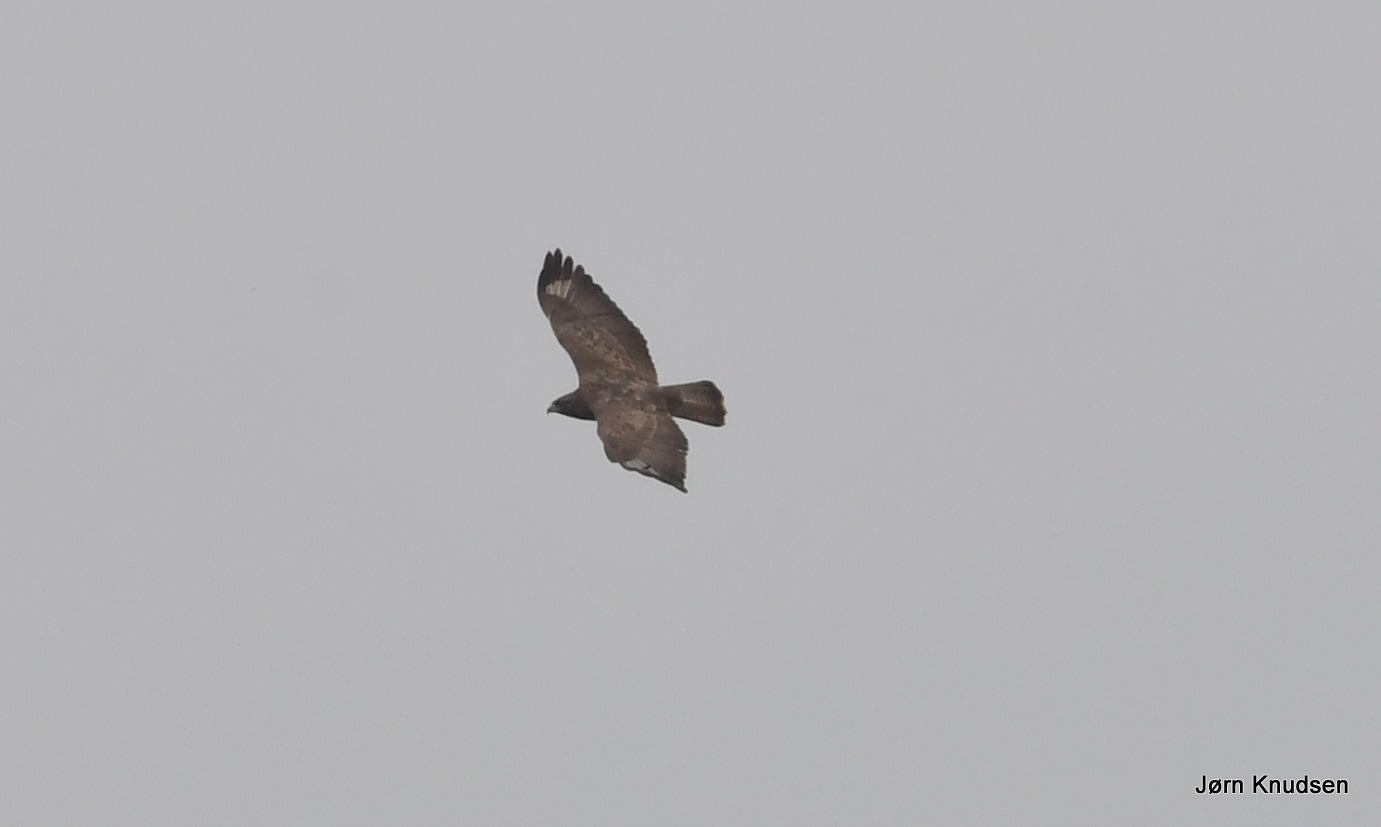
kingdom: Animalia
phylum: Chordata
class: Aves
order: Accipitriformes
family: Accipitridae
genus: Buteo
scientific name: Buteo buteo
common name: Musvåge
